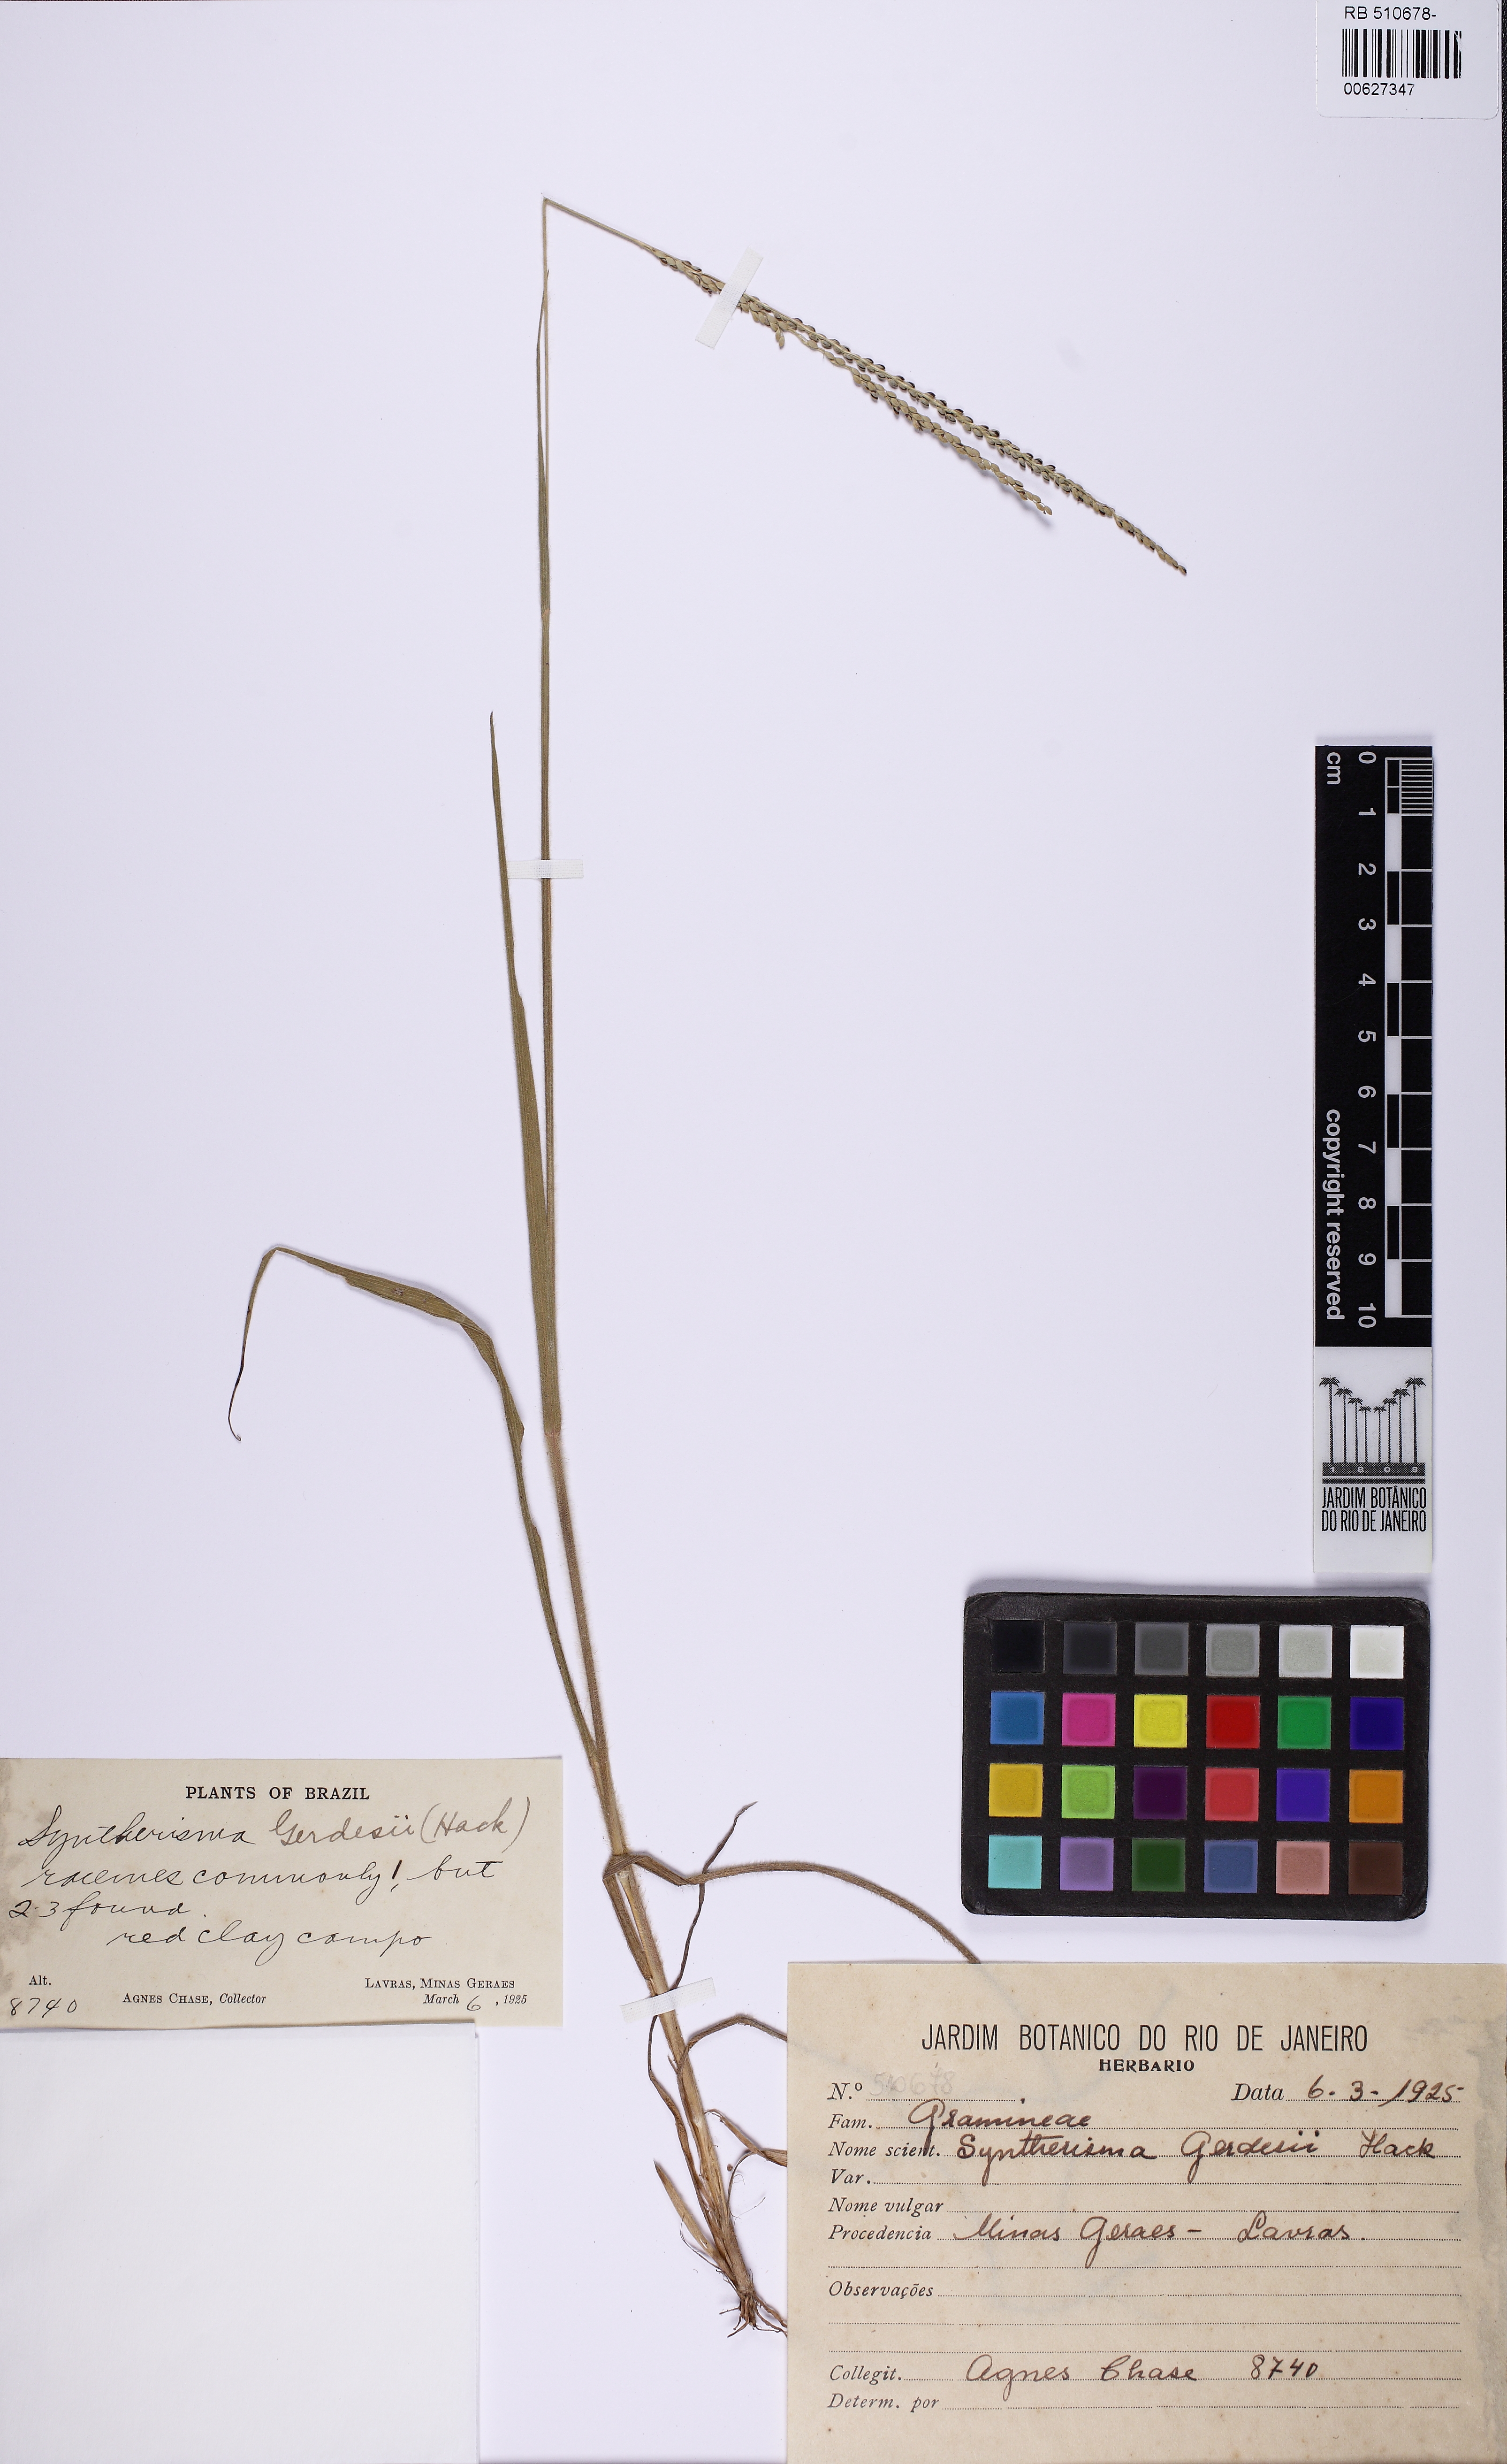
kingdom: Plantae
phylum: Tracheophyta
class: Liliopsida
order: Poales
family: Poaceae
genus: Digitaria
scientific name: Digitaria
